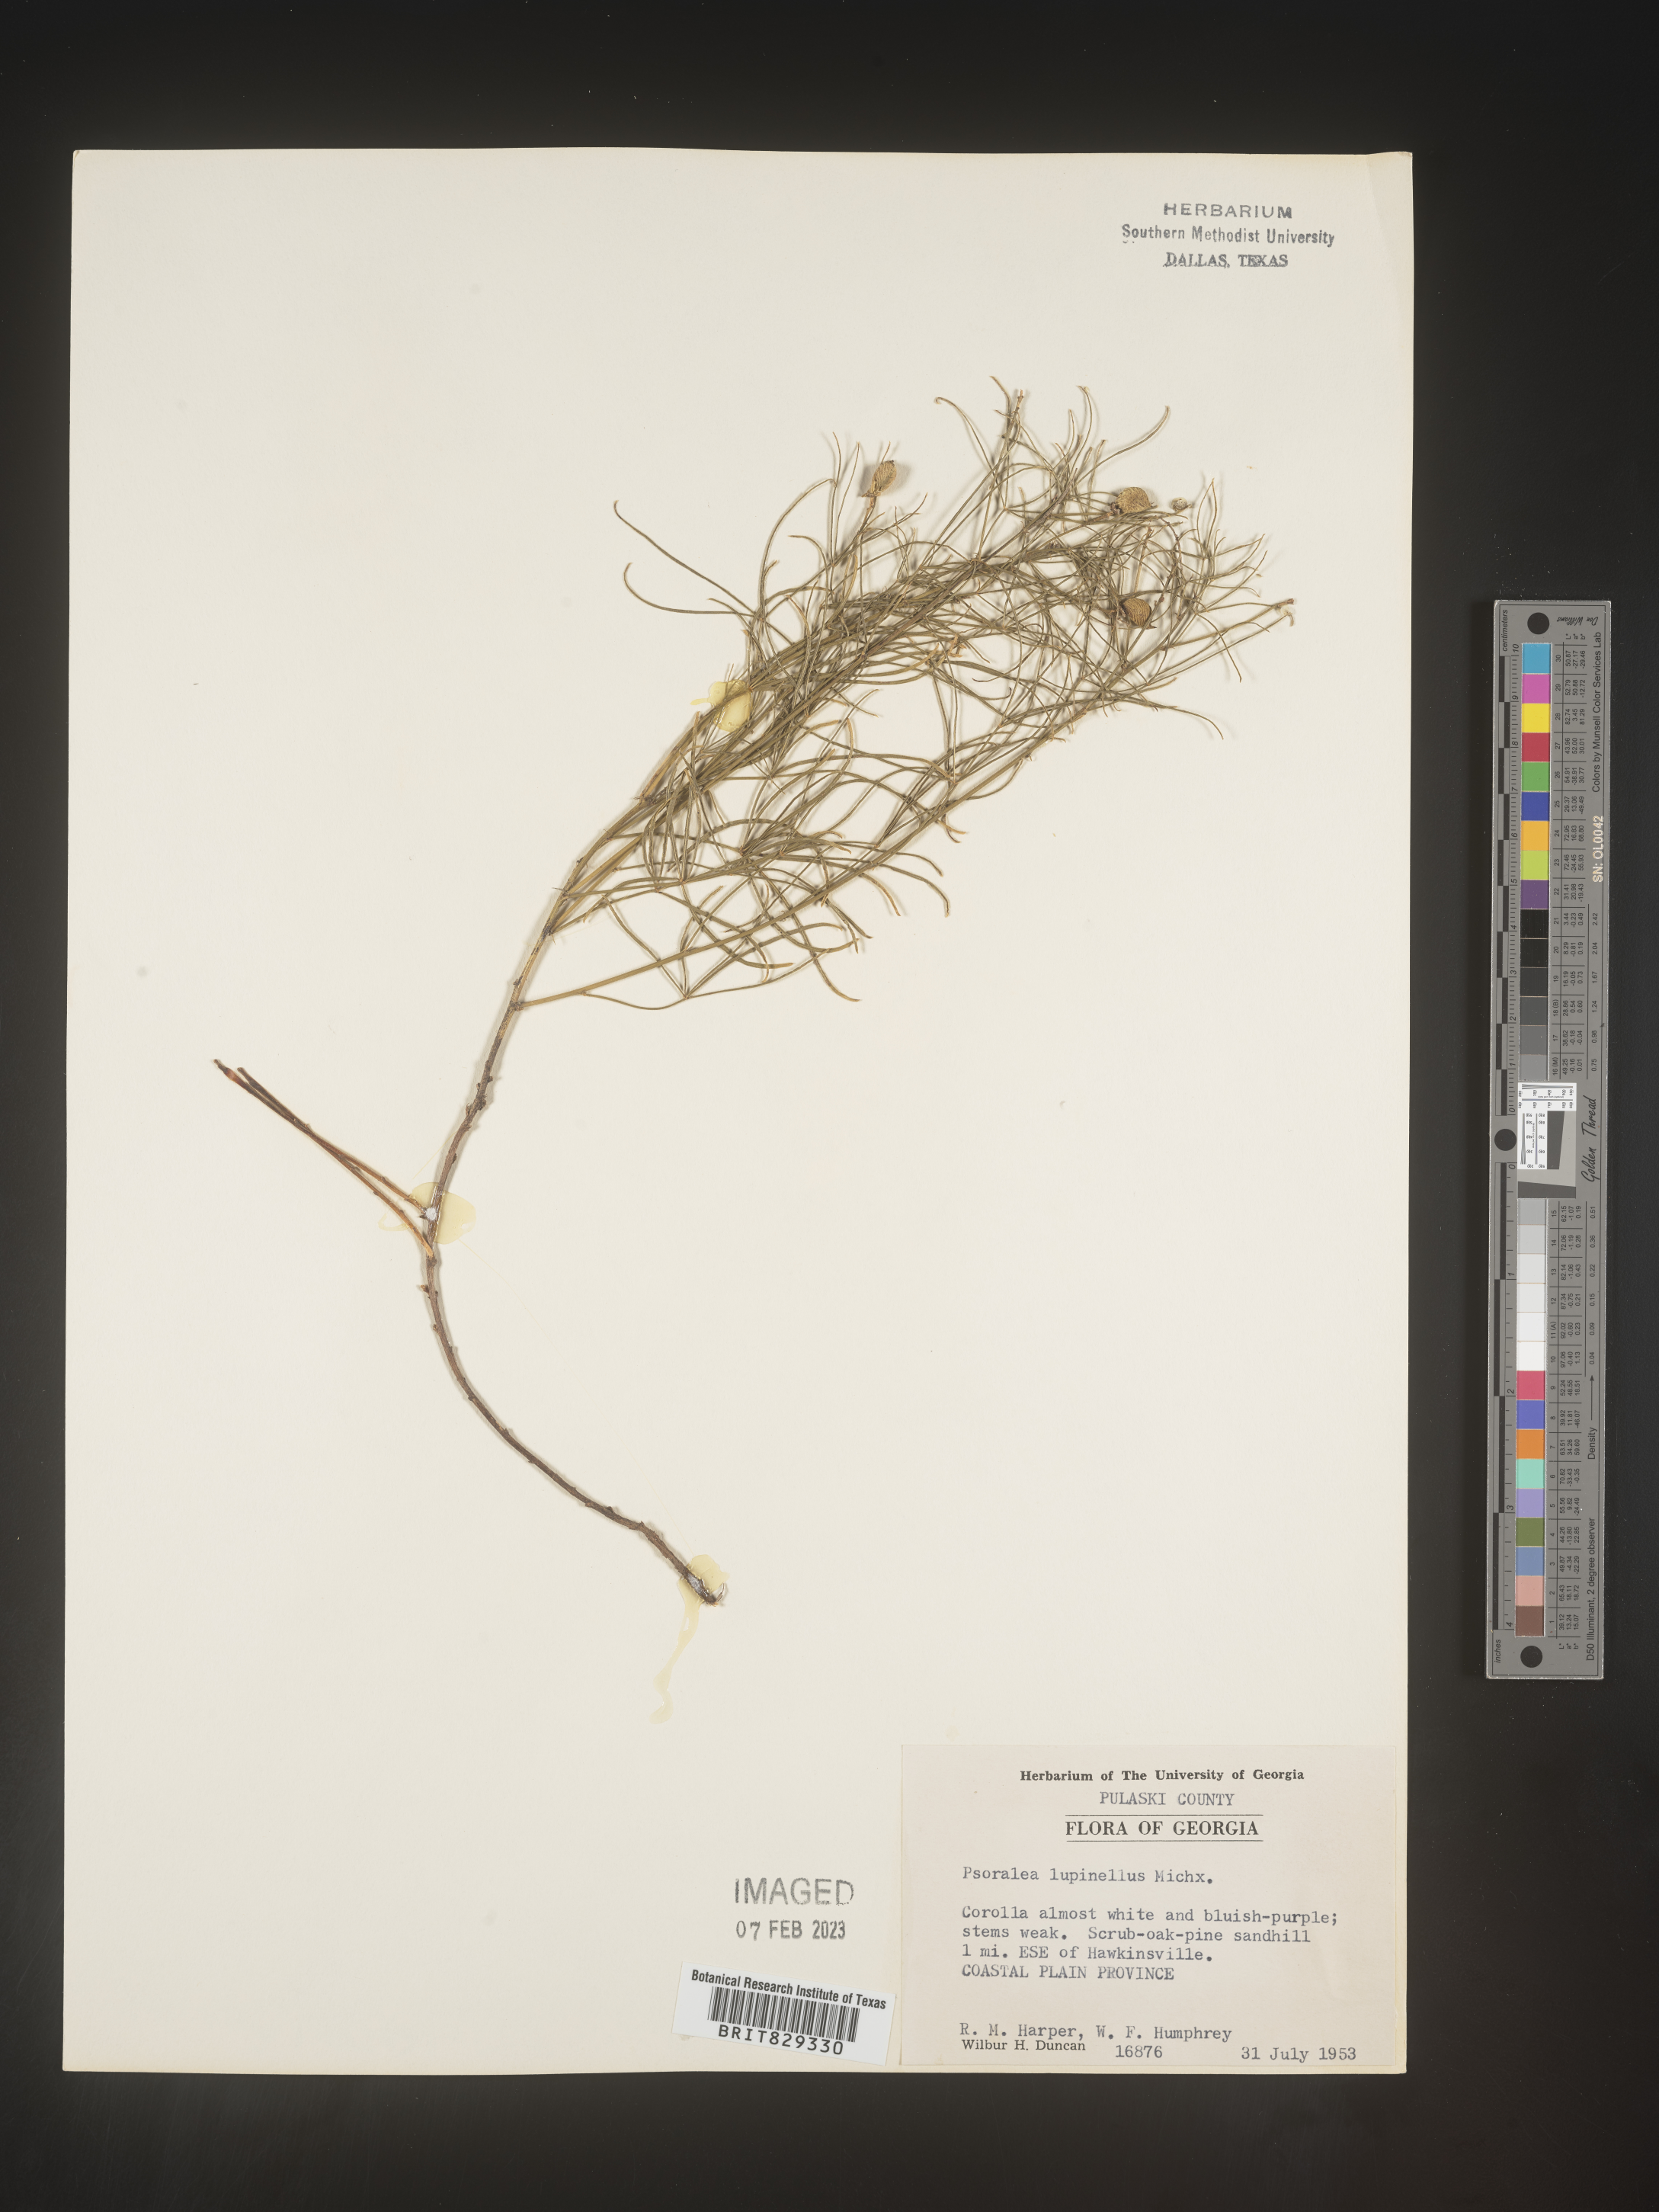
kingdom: Plantae
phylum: Tracheophyta
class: Magnoliopsida
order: Fabales
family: Fabaceae
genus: Psoralea
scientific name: Psoralea
